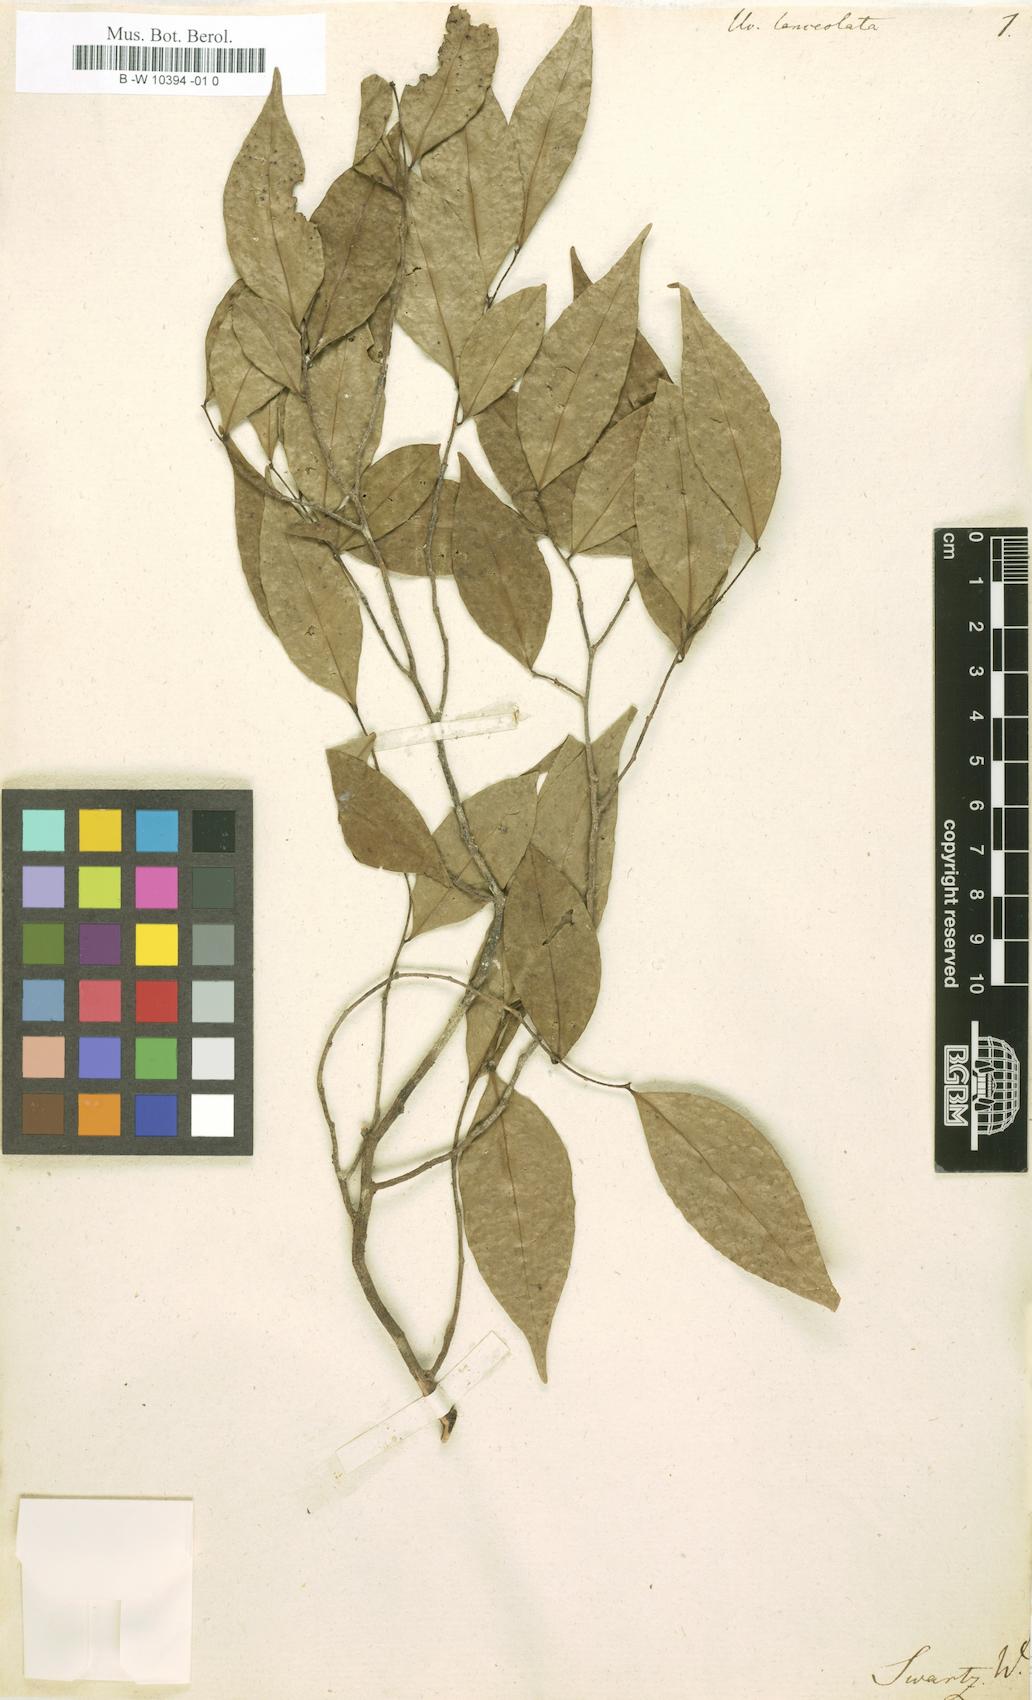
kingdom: Plantae
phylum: Tracheophyta
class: Magnoliopsida
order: Magnoliales
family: Annonaceae
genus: Uvaria
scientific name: Uvaria lanceolata
